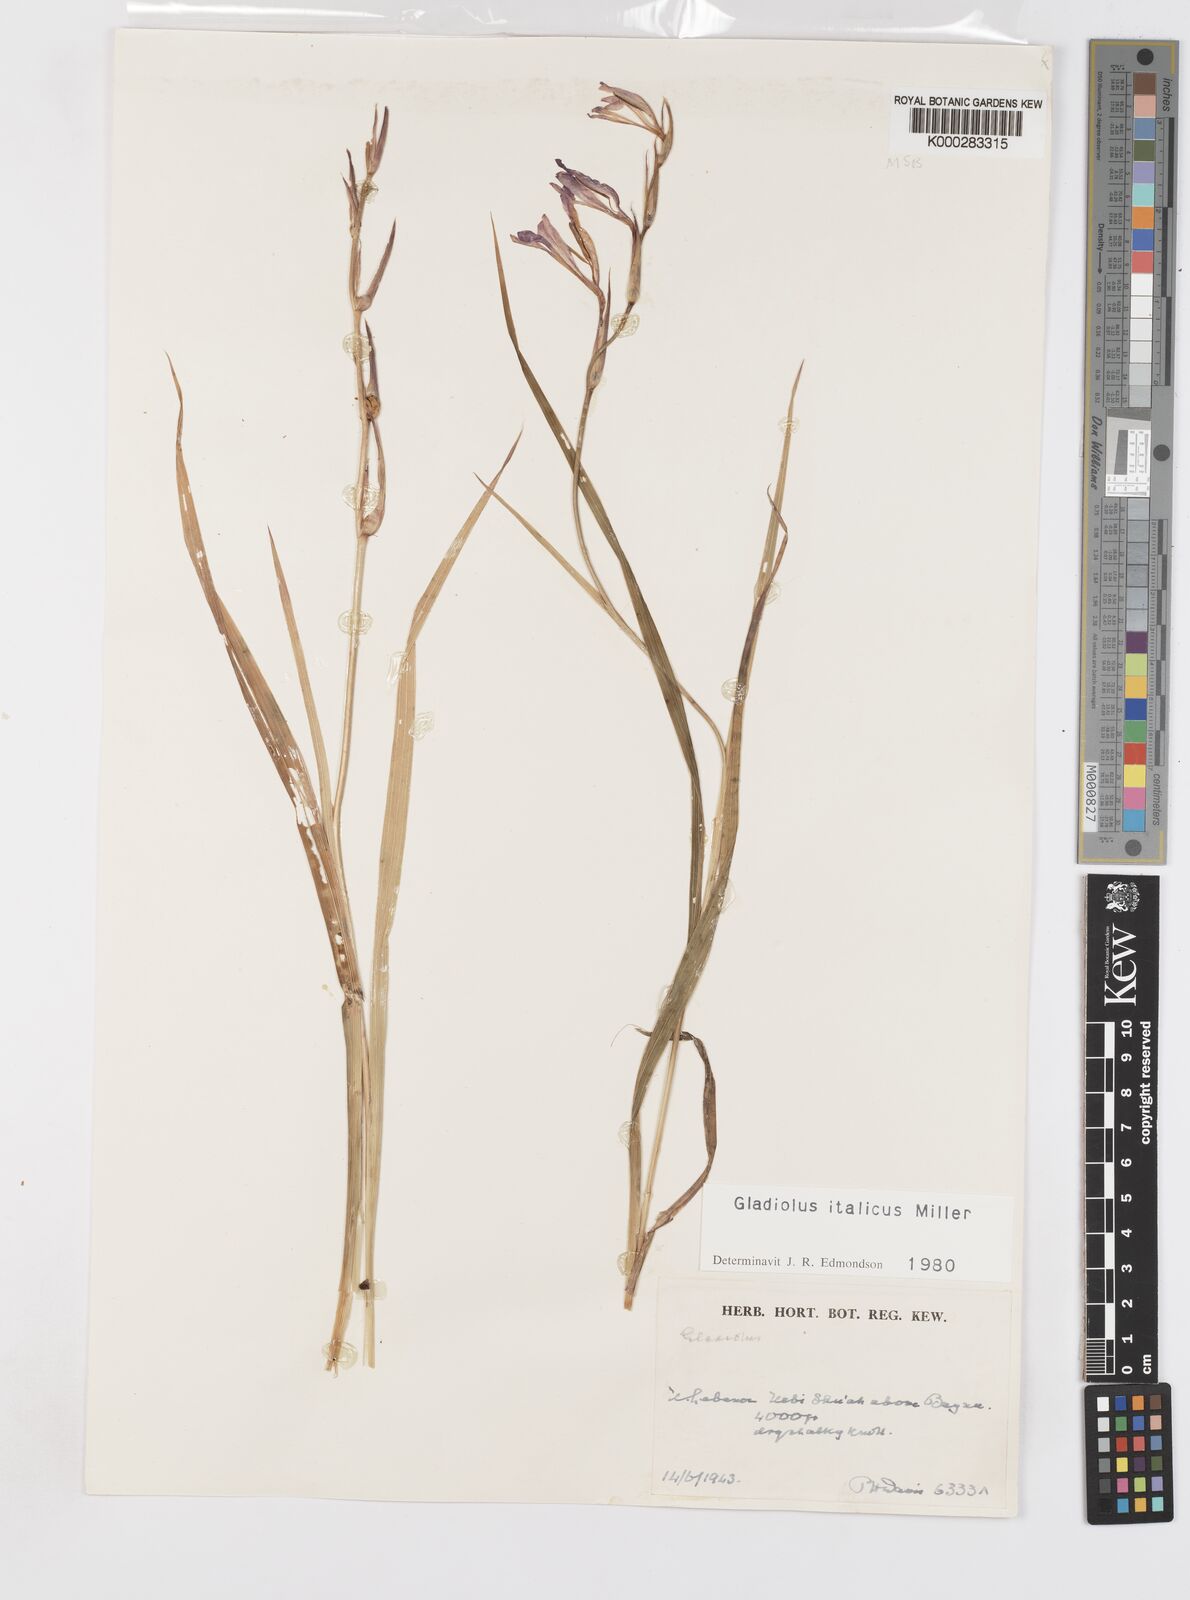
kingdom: Plantae
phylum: Tracheophyta
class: Liliopsida
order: Asparagales
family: Iridaceae
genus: Gladiolus
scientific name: Gladiolus italicus
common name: Field gladiolus
